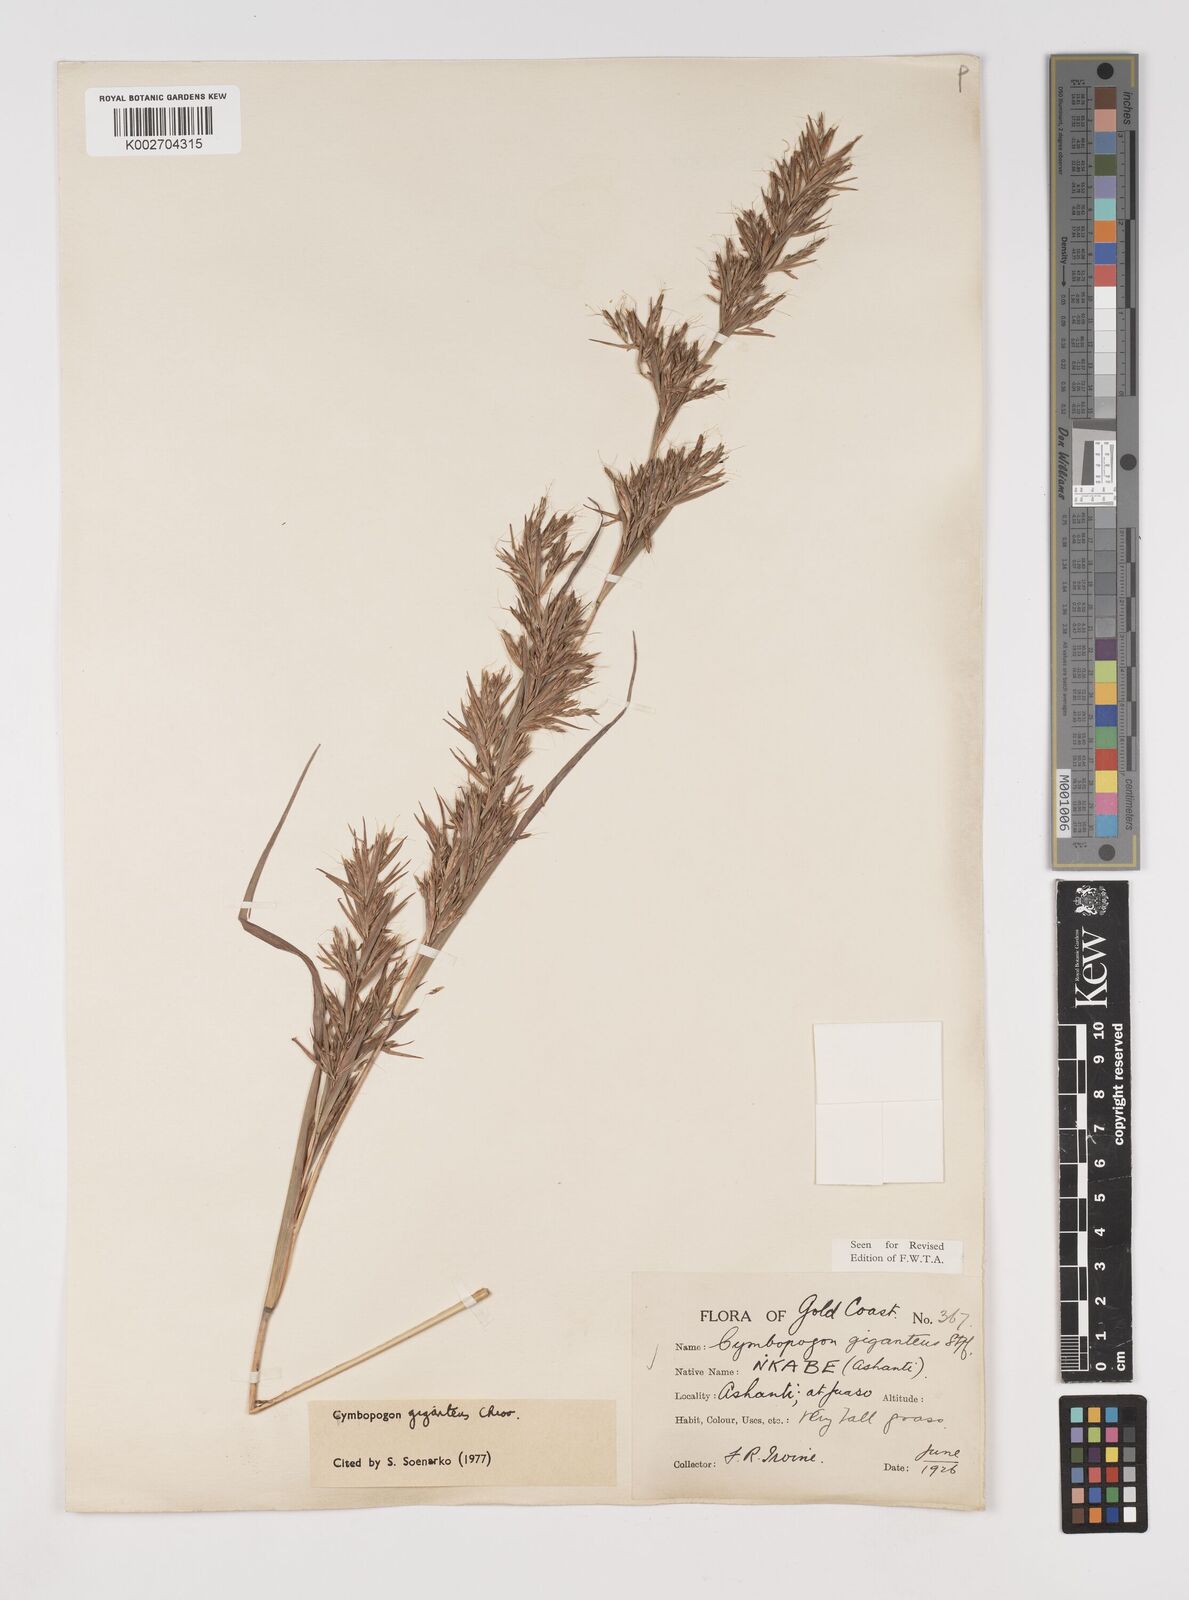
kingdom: Plantae
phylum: Tracheophyta
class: Liliopsida
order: Poales
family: Poaceae
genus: Cymbopogon
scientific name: Cymbopogon giganteus
